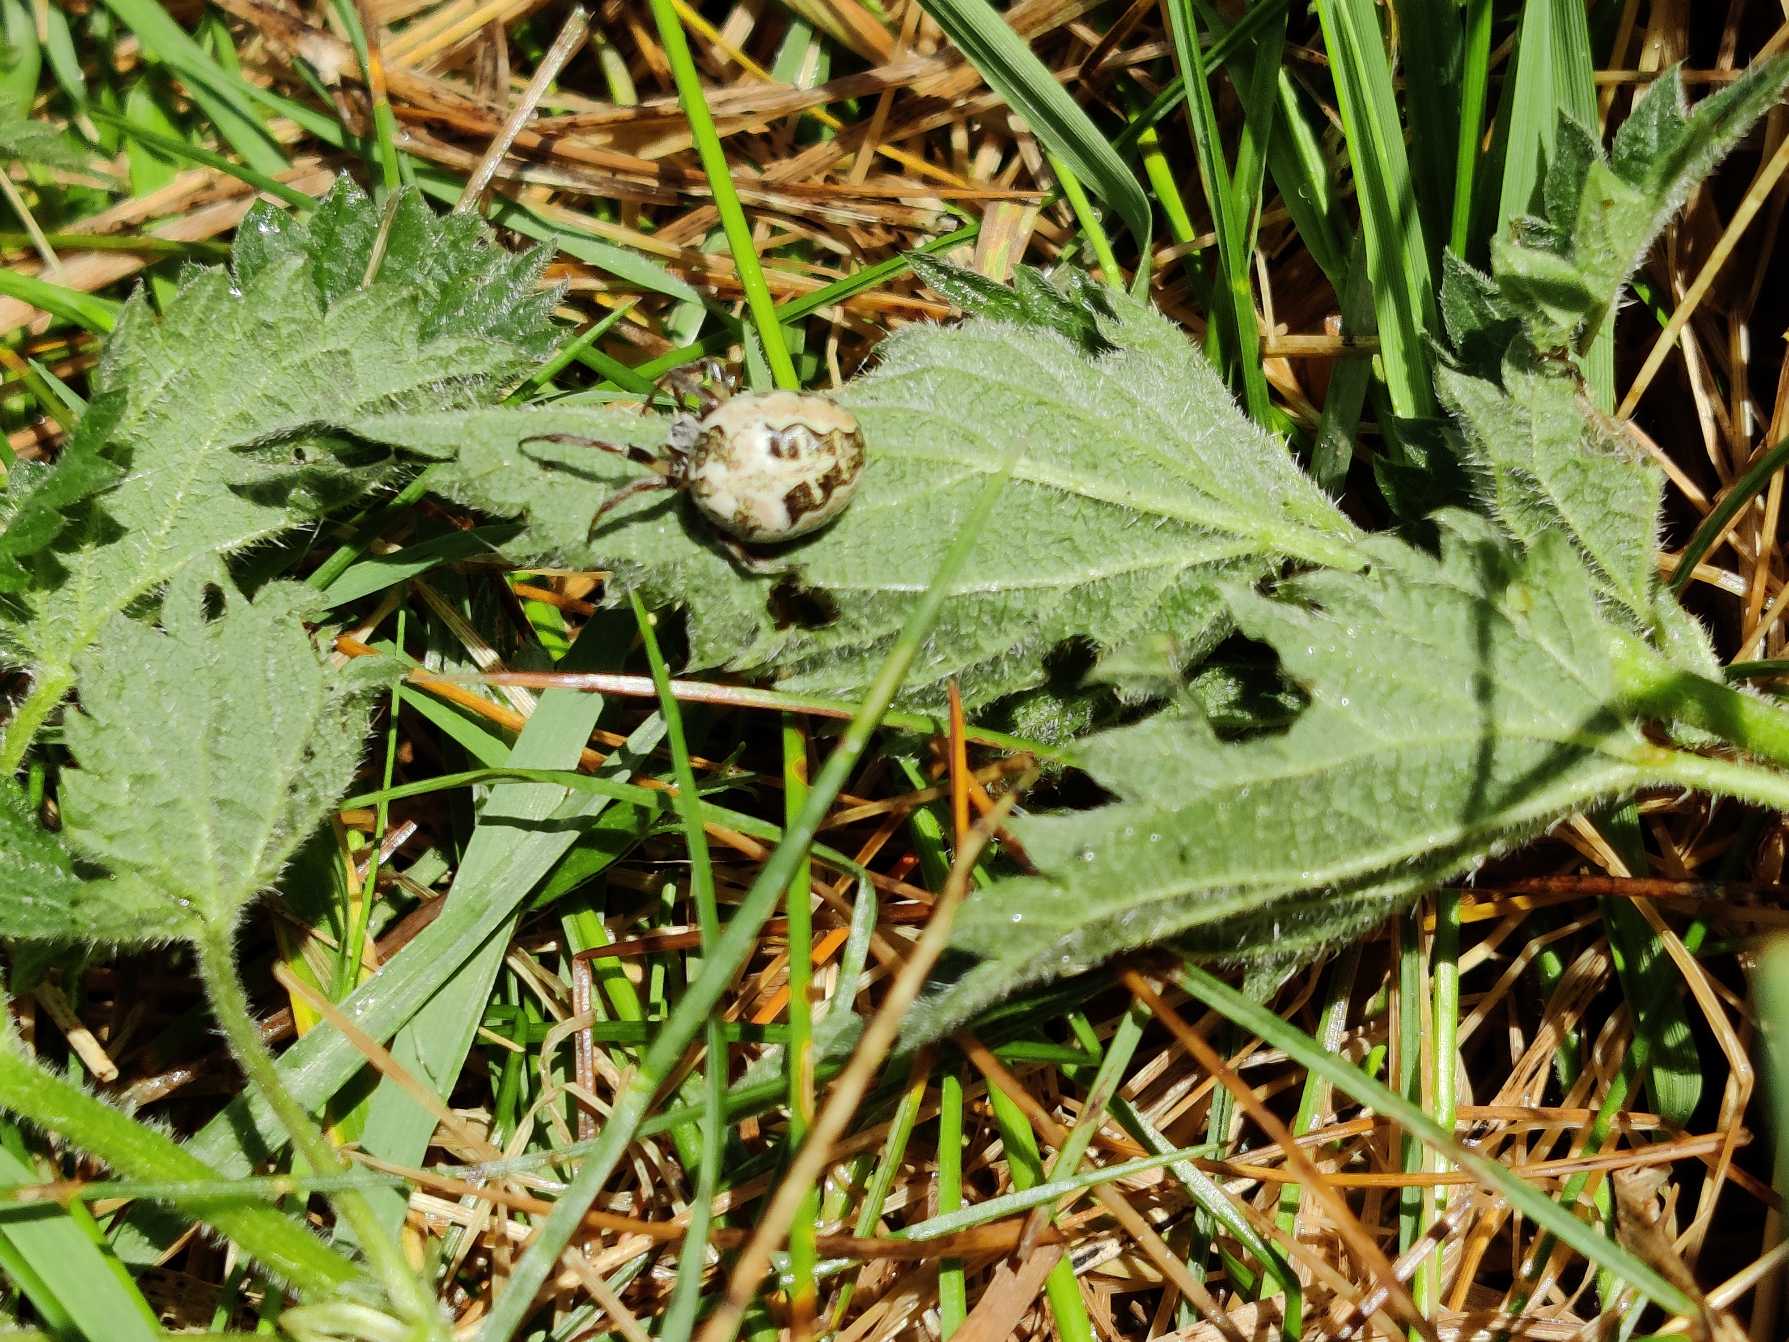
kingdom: Animalia
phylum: Arthropoda
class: Arachnida
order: Araneae
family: Araneidae
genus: Larinioides
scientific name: Larinioides cornutus
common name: Sivhjulspinder
